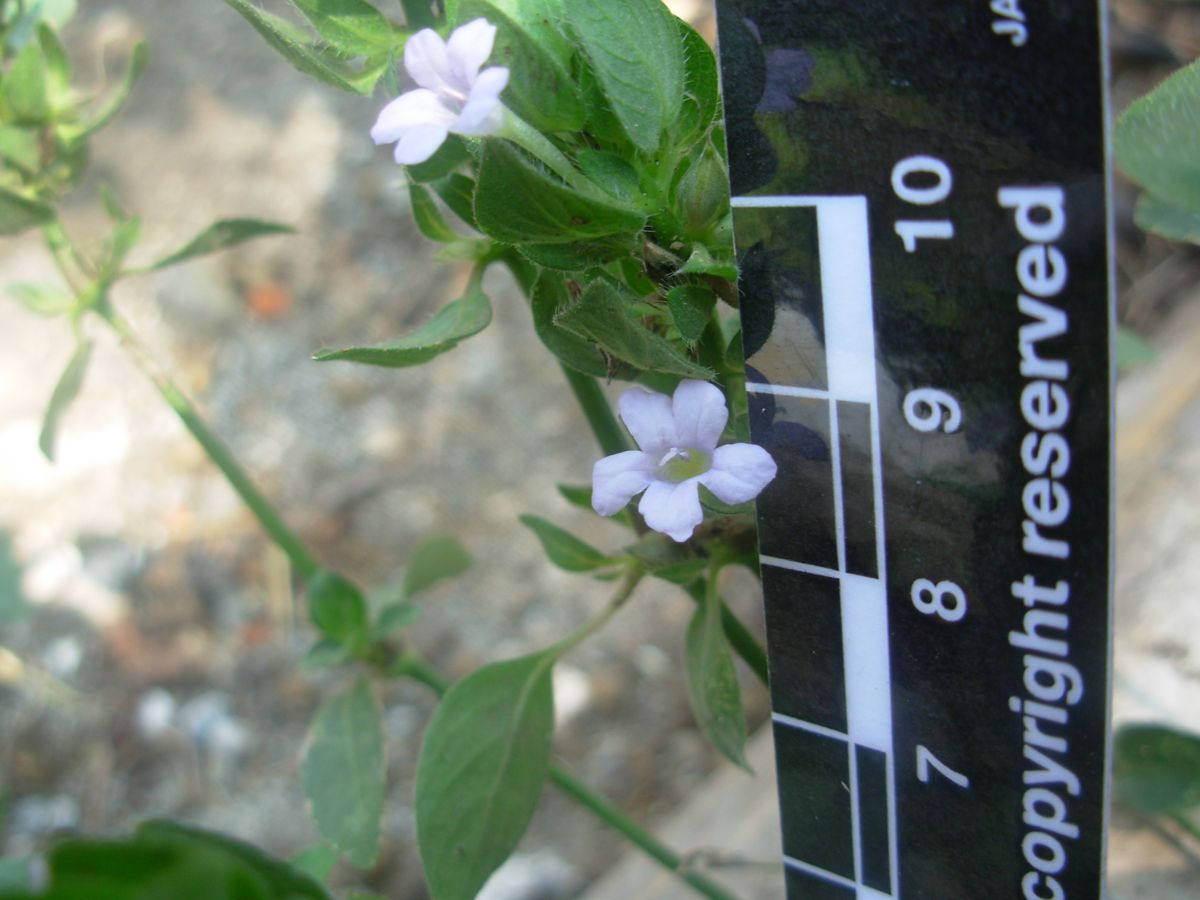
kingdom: Plantae
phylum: Tracheophyta
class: Magnoliopsida
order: Lamiales
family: Acanthaceae
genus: Ruellia
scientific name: Ruellia blechum
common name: Browne's blechum
